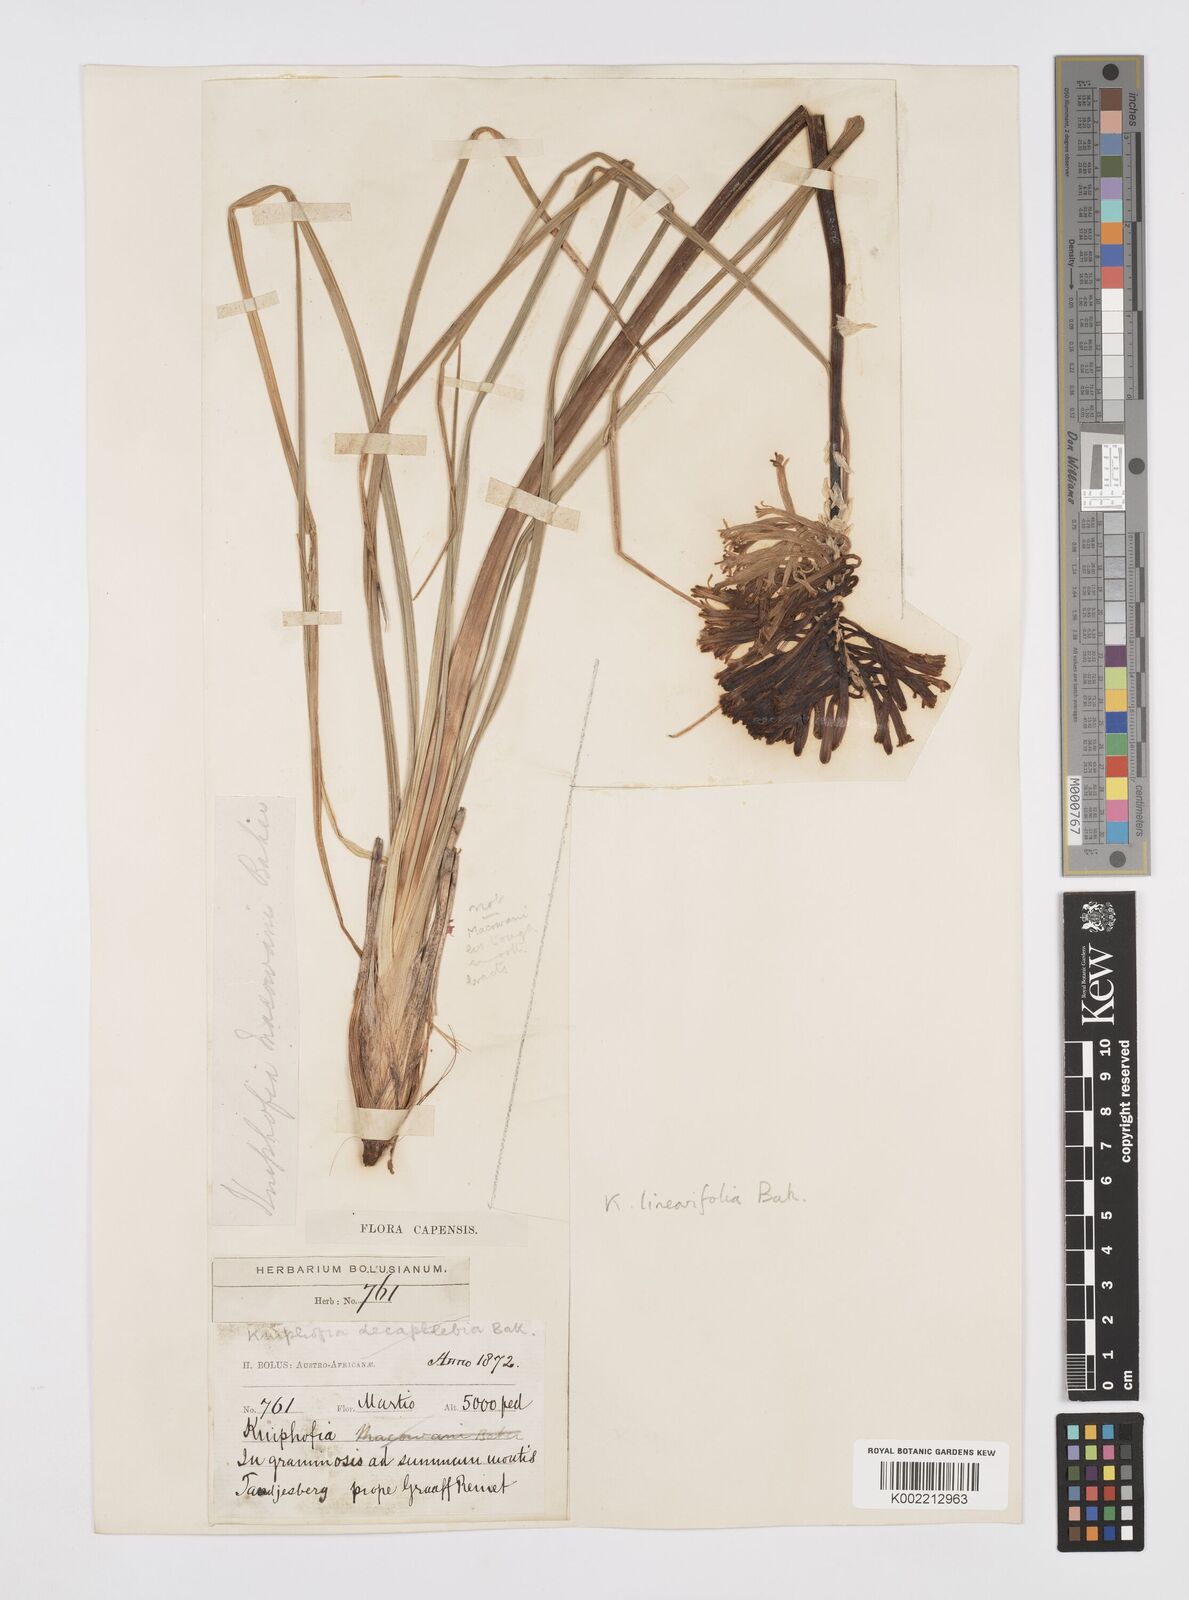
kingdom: Plantae
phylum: Tracheophyta
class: Liliopsida
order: Asparagales
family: Asphodelaceae
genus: Kniphofia
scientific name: Kniphofia linearifolia
